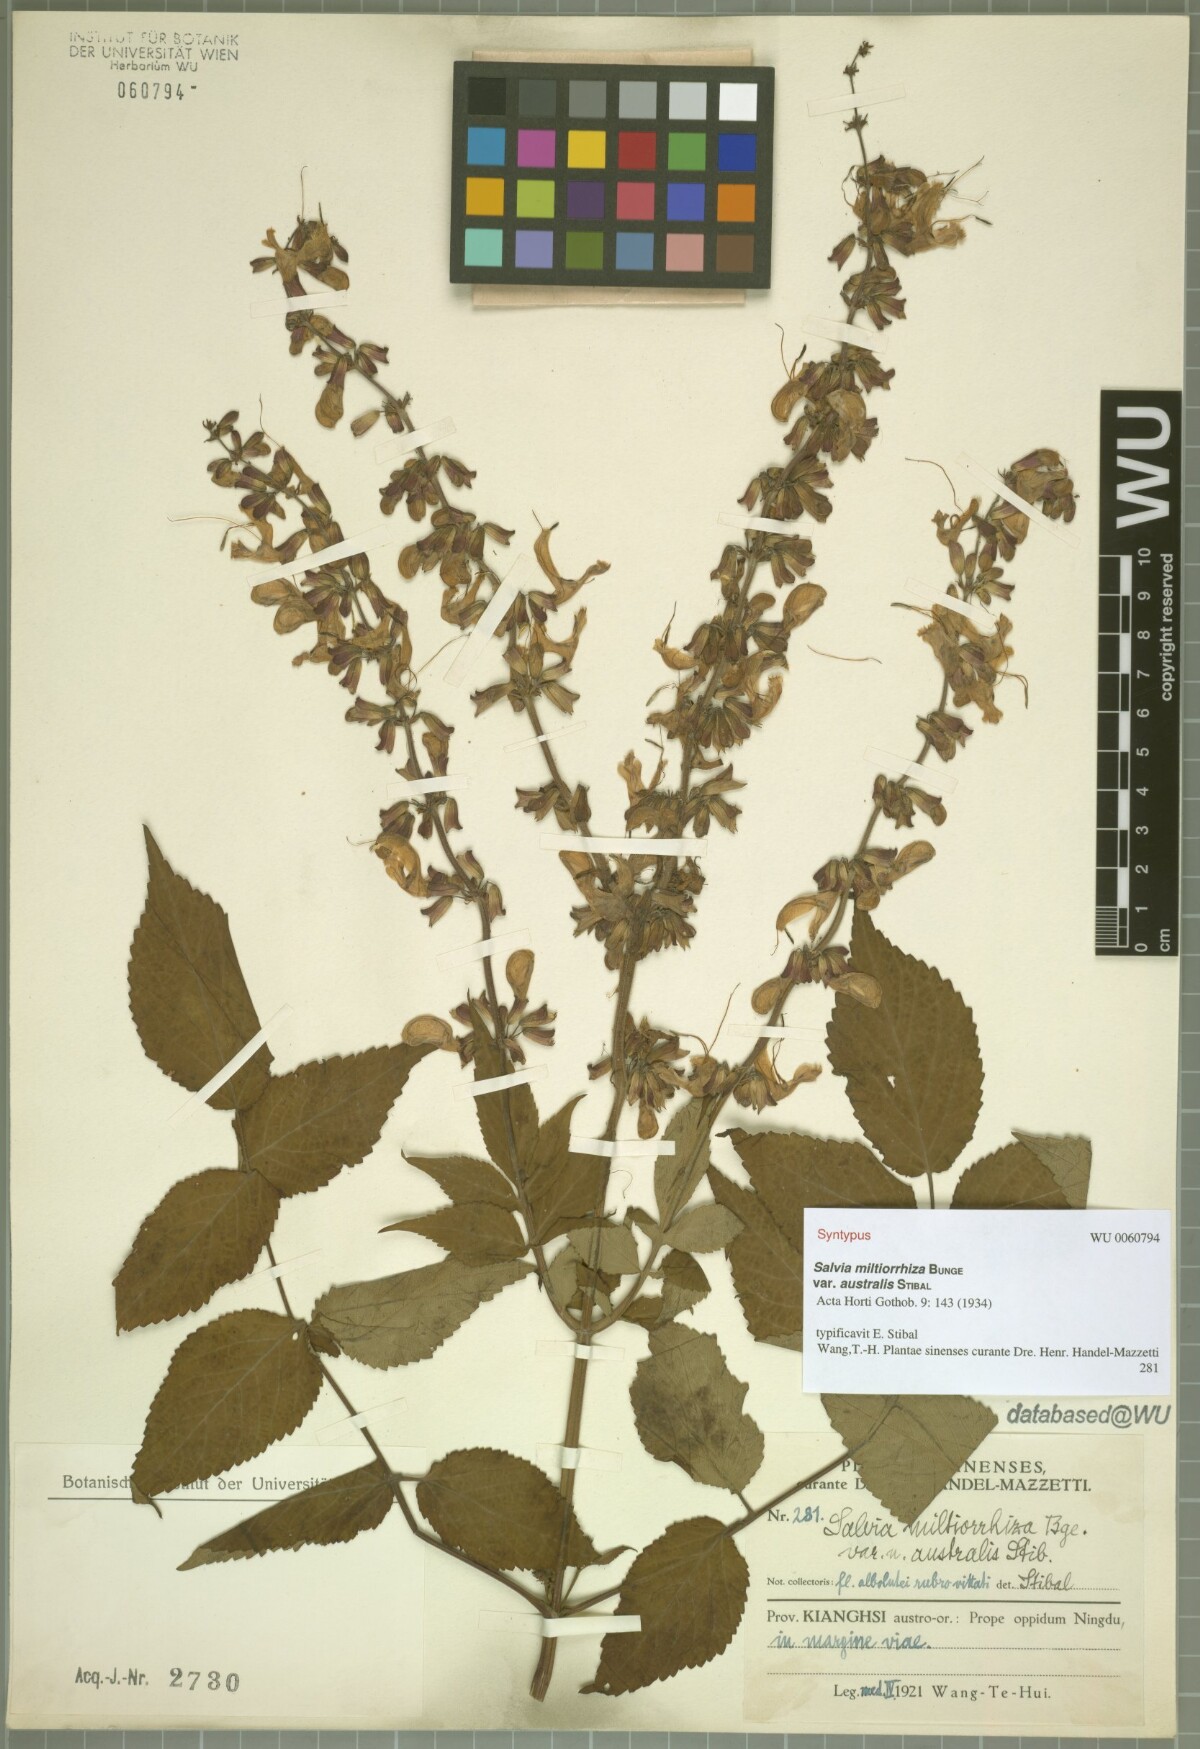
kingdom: Plantae
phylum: Tracheophyta
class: Magnoliopsida
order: Lamiales
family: Lamiaceae
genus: Salvia
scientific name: Salvia bowleyana
